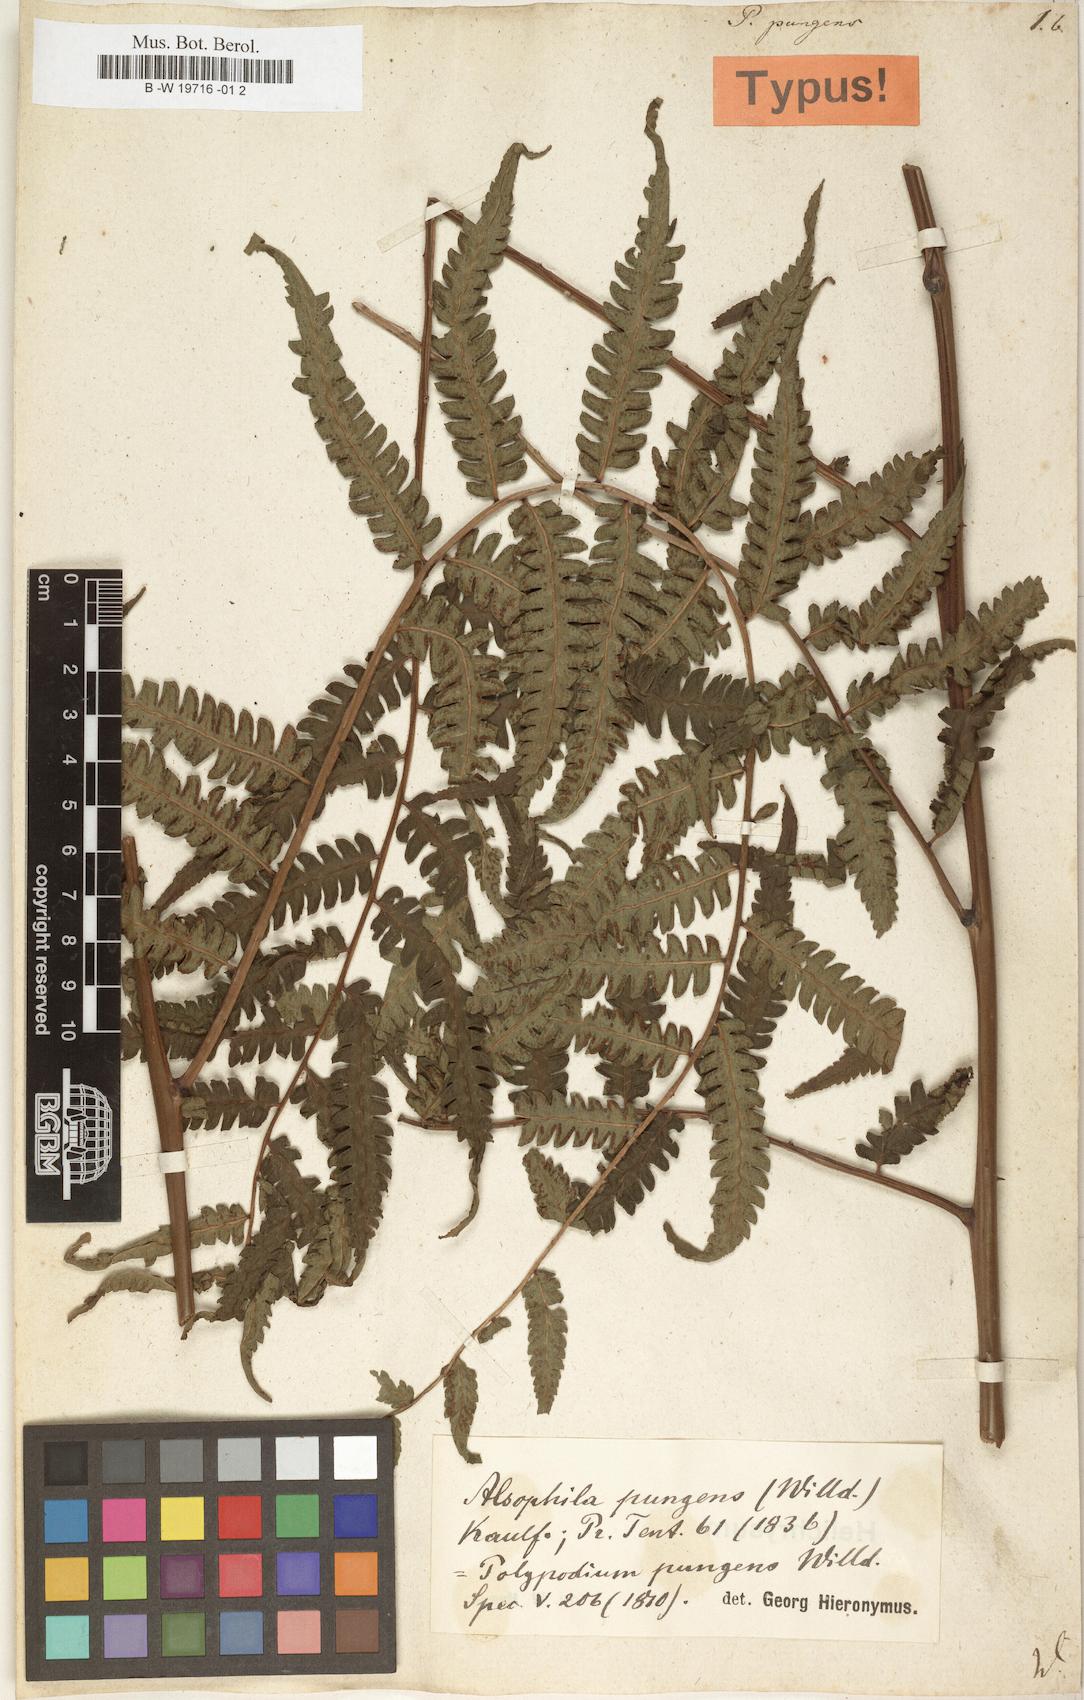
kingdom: Plantae
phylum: Tracheophyta
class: Polypodiopsida
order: Cyatheales
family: Cyatheaceae
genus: Cyathea
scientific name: Cyathea pungens
